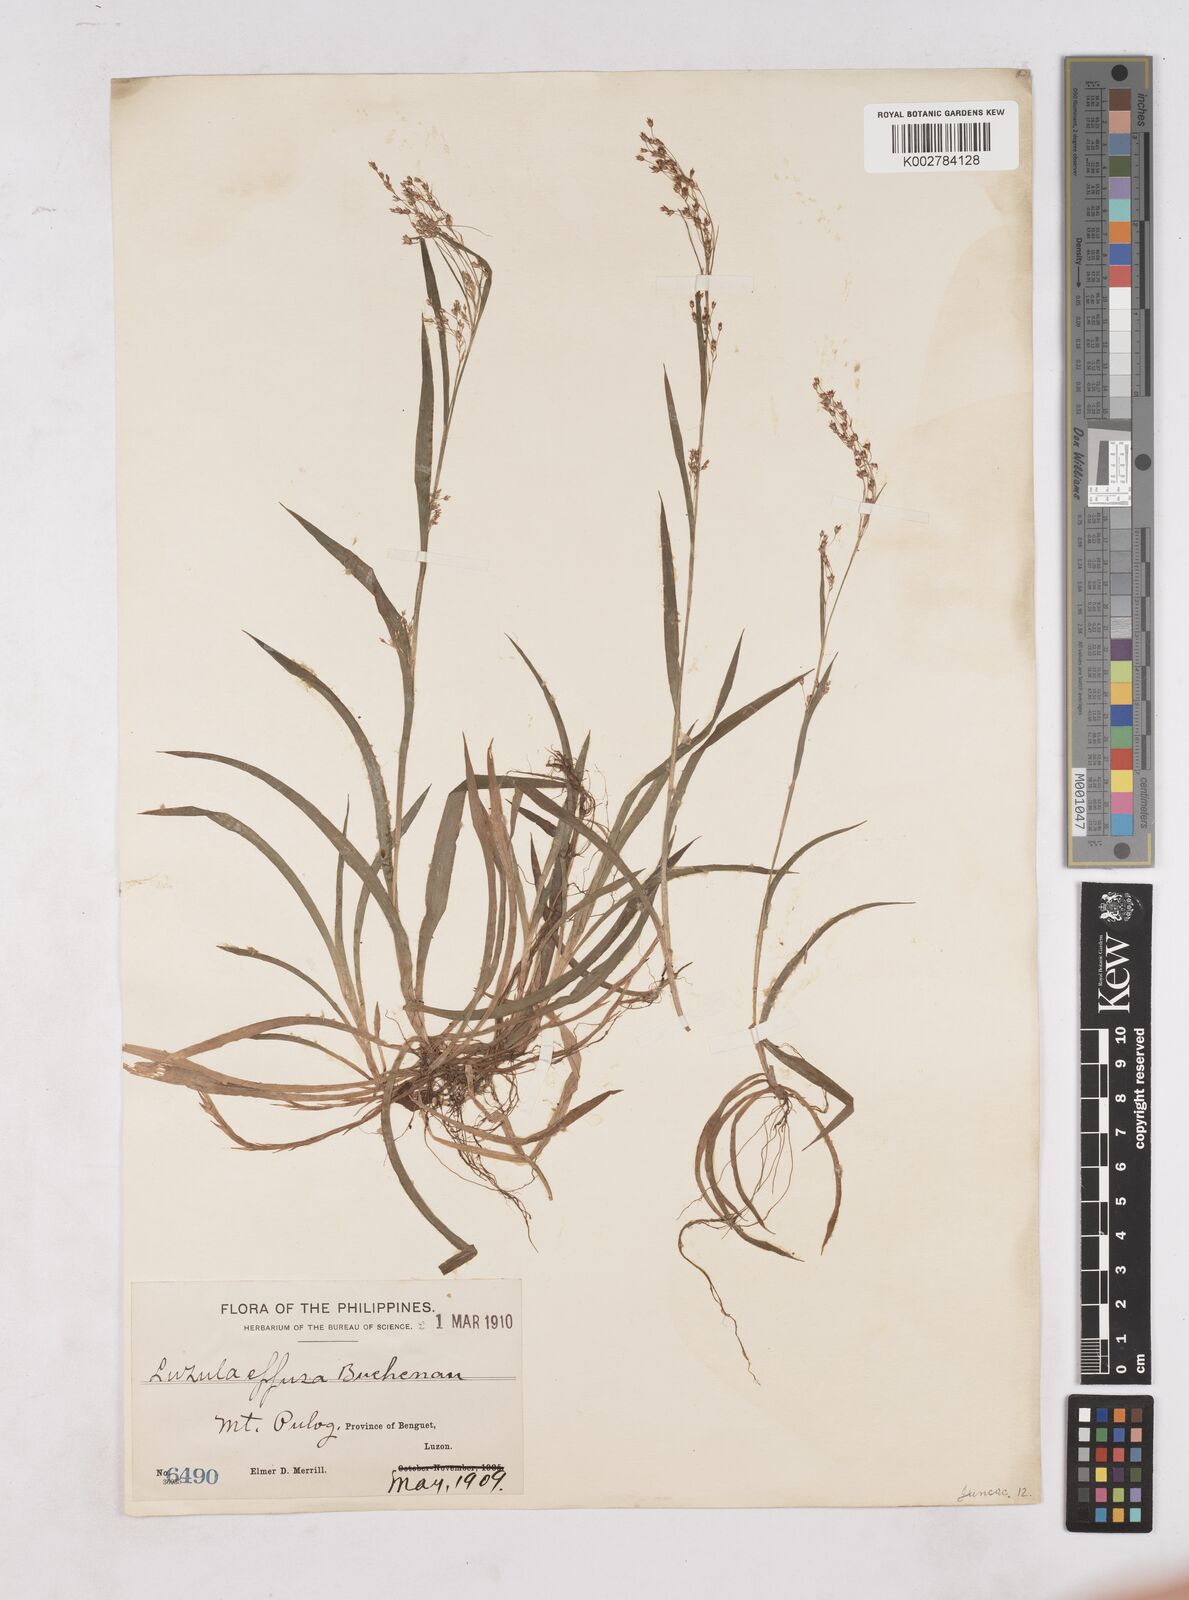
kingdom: Plantae
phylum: Tracheophyta
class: Liliopsida
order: Poales
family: Juncaceae
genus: Luzula
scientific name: Luzula effusa
